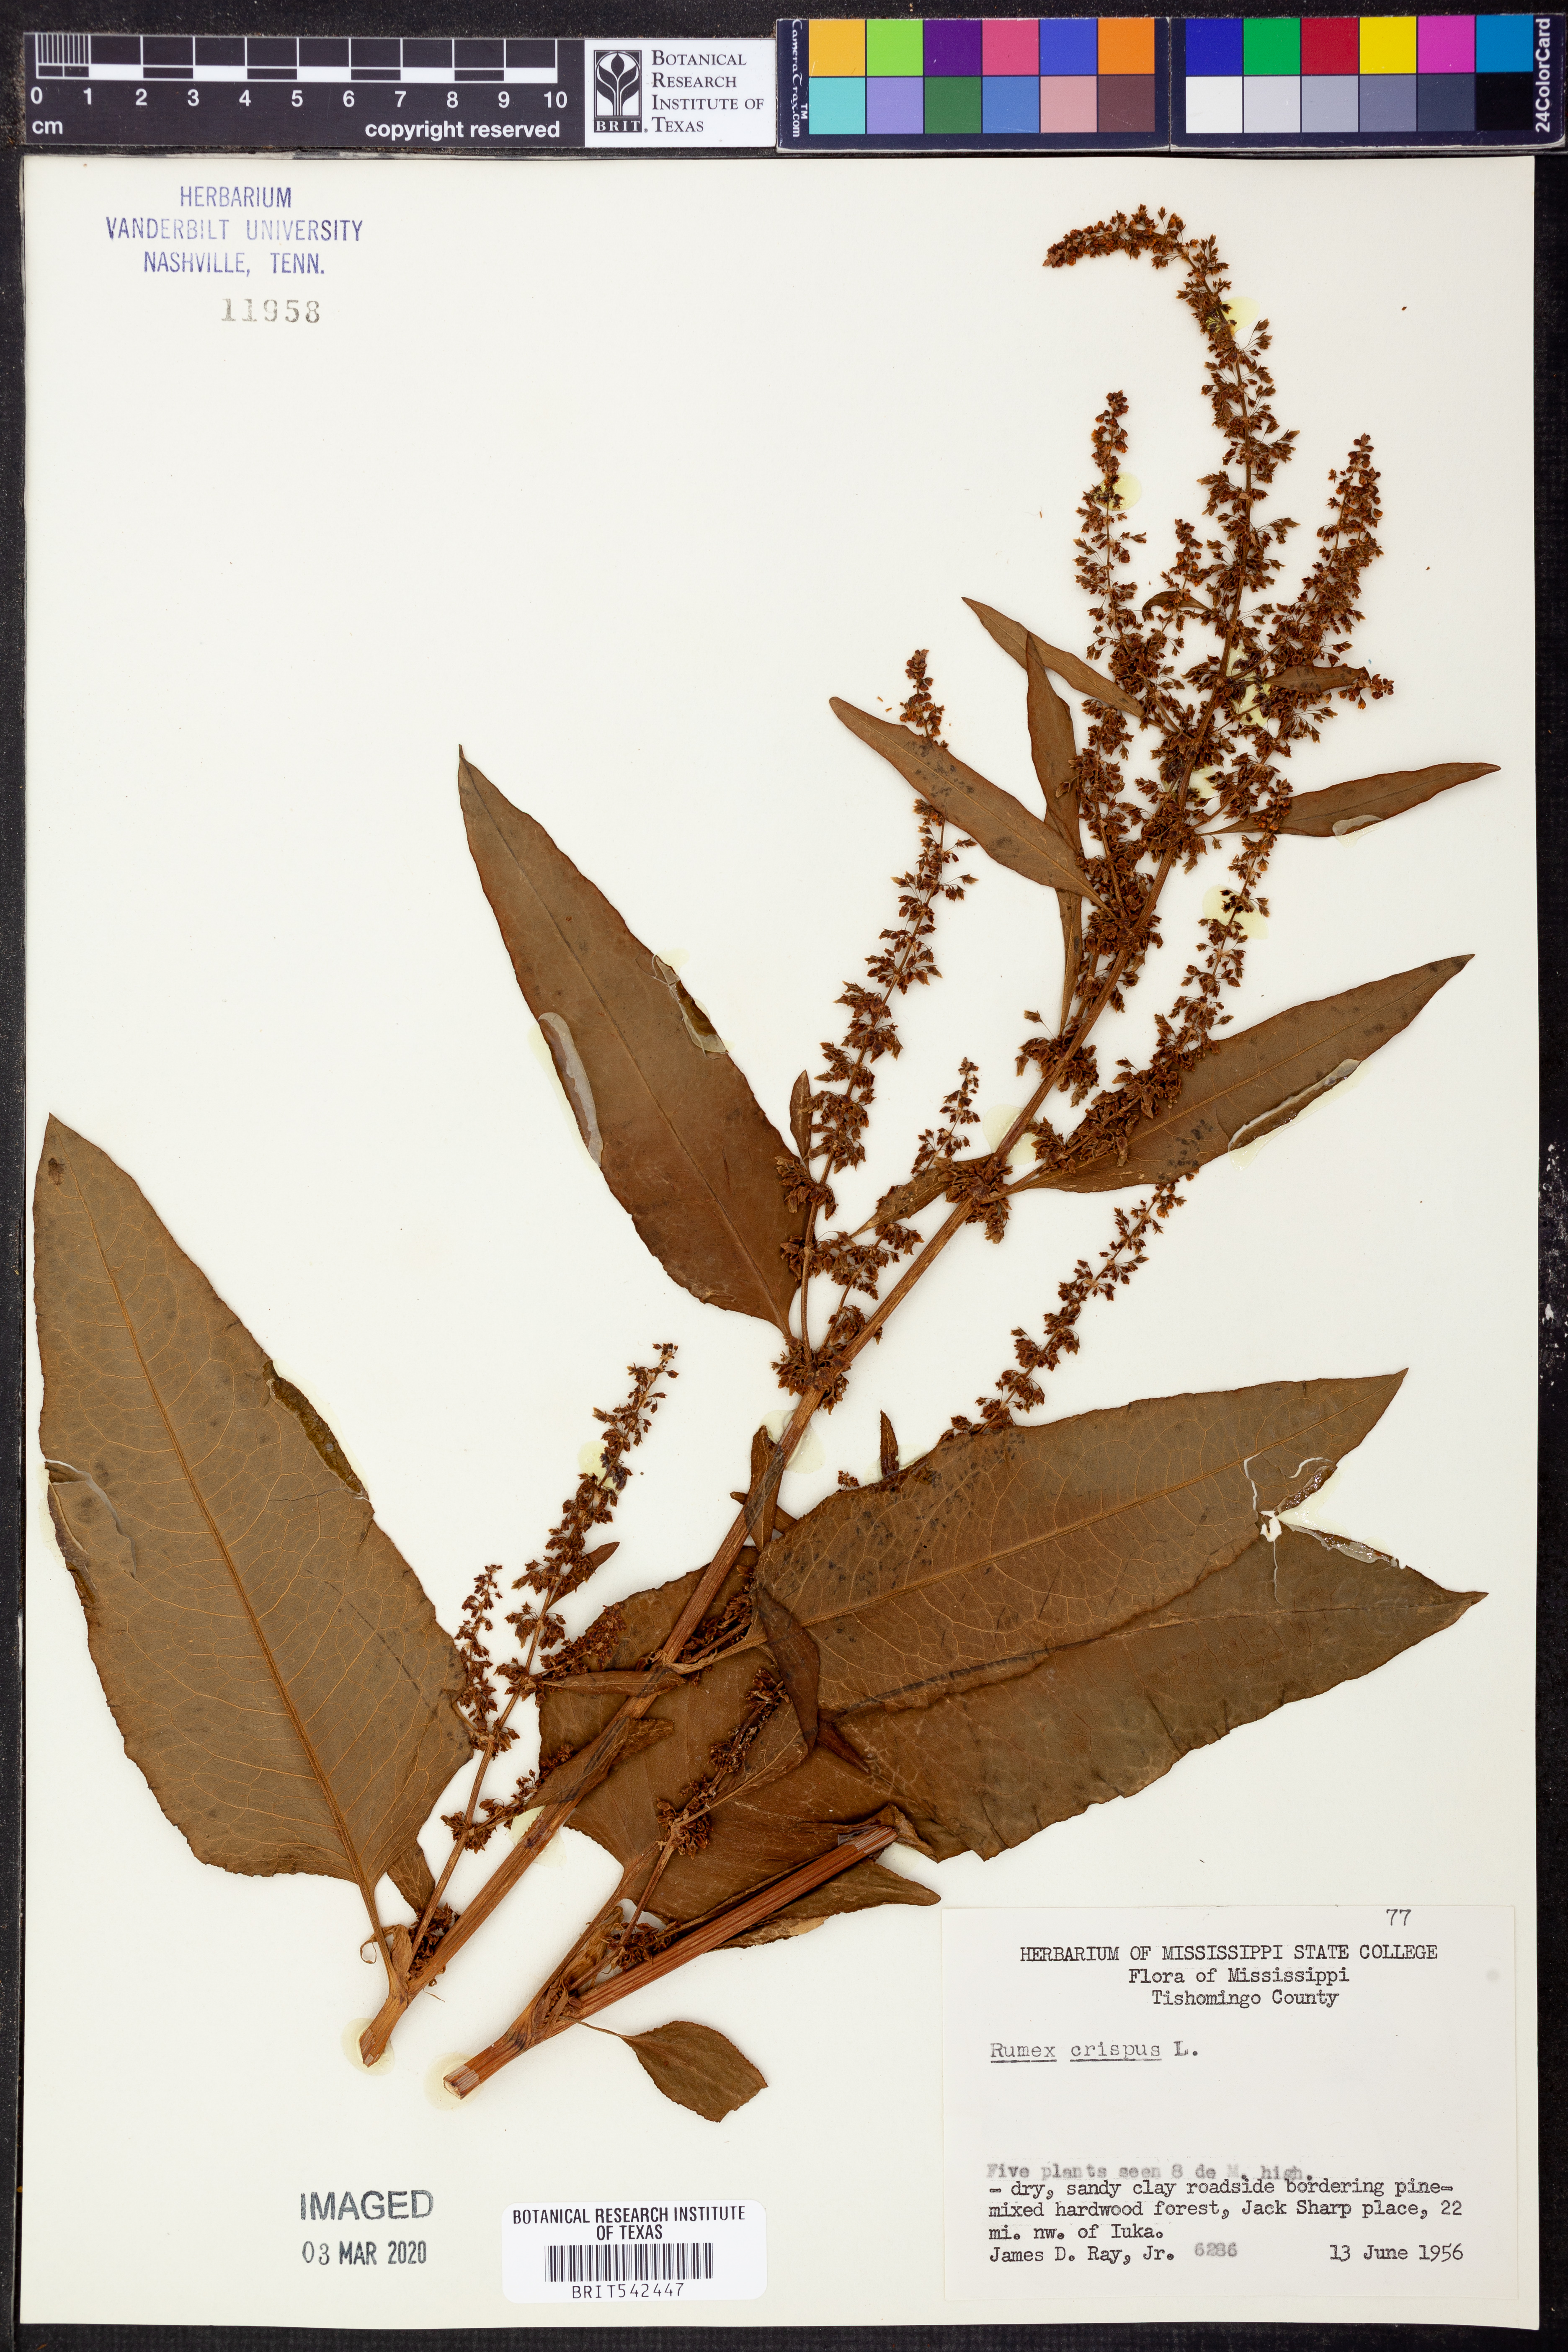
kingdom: Plantae
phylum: Tracheophyta
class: Magnoliopsida
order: Caryophyllales
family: Polygonaceae
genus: Rumex
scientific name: Rumex crispus
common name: Curled dock
